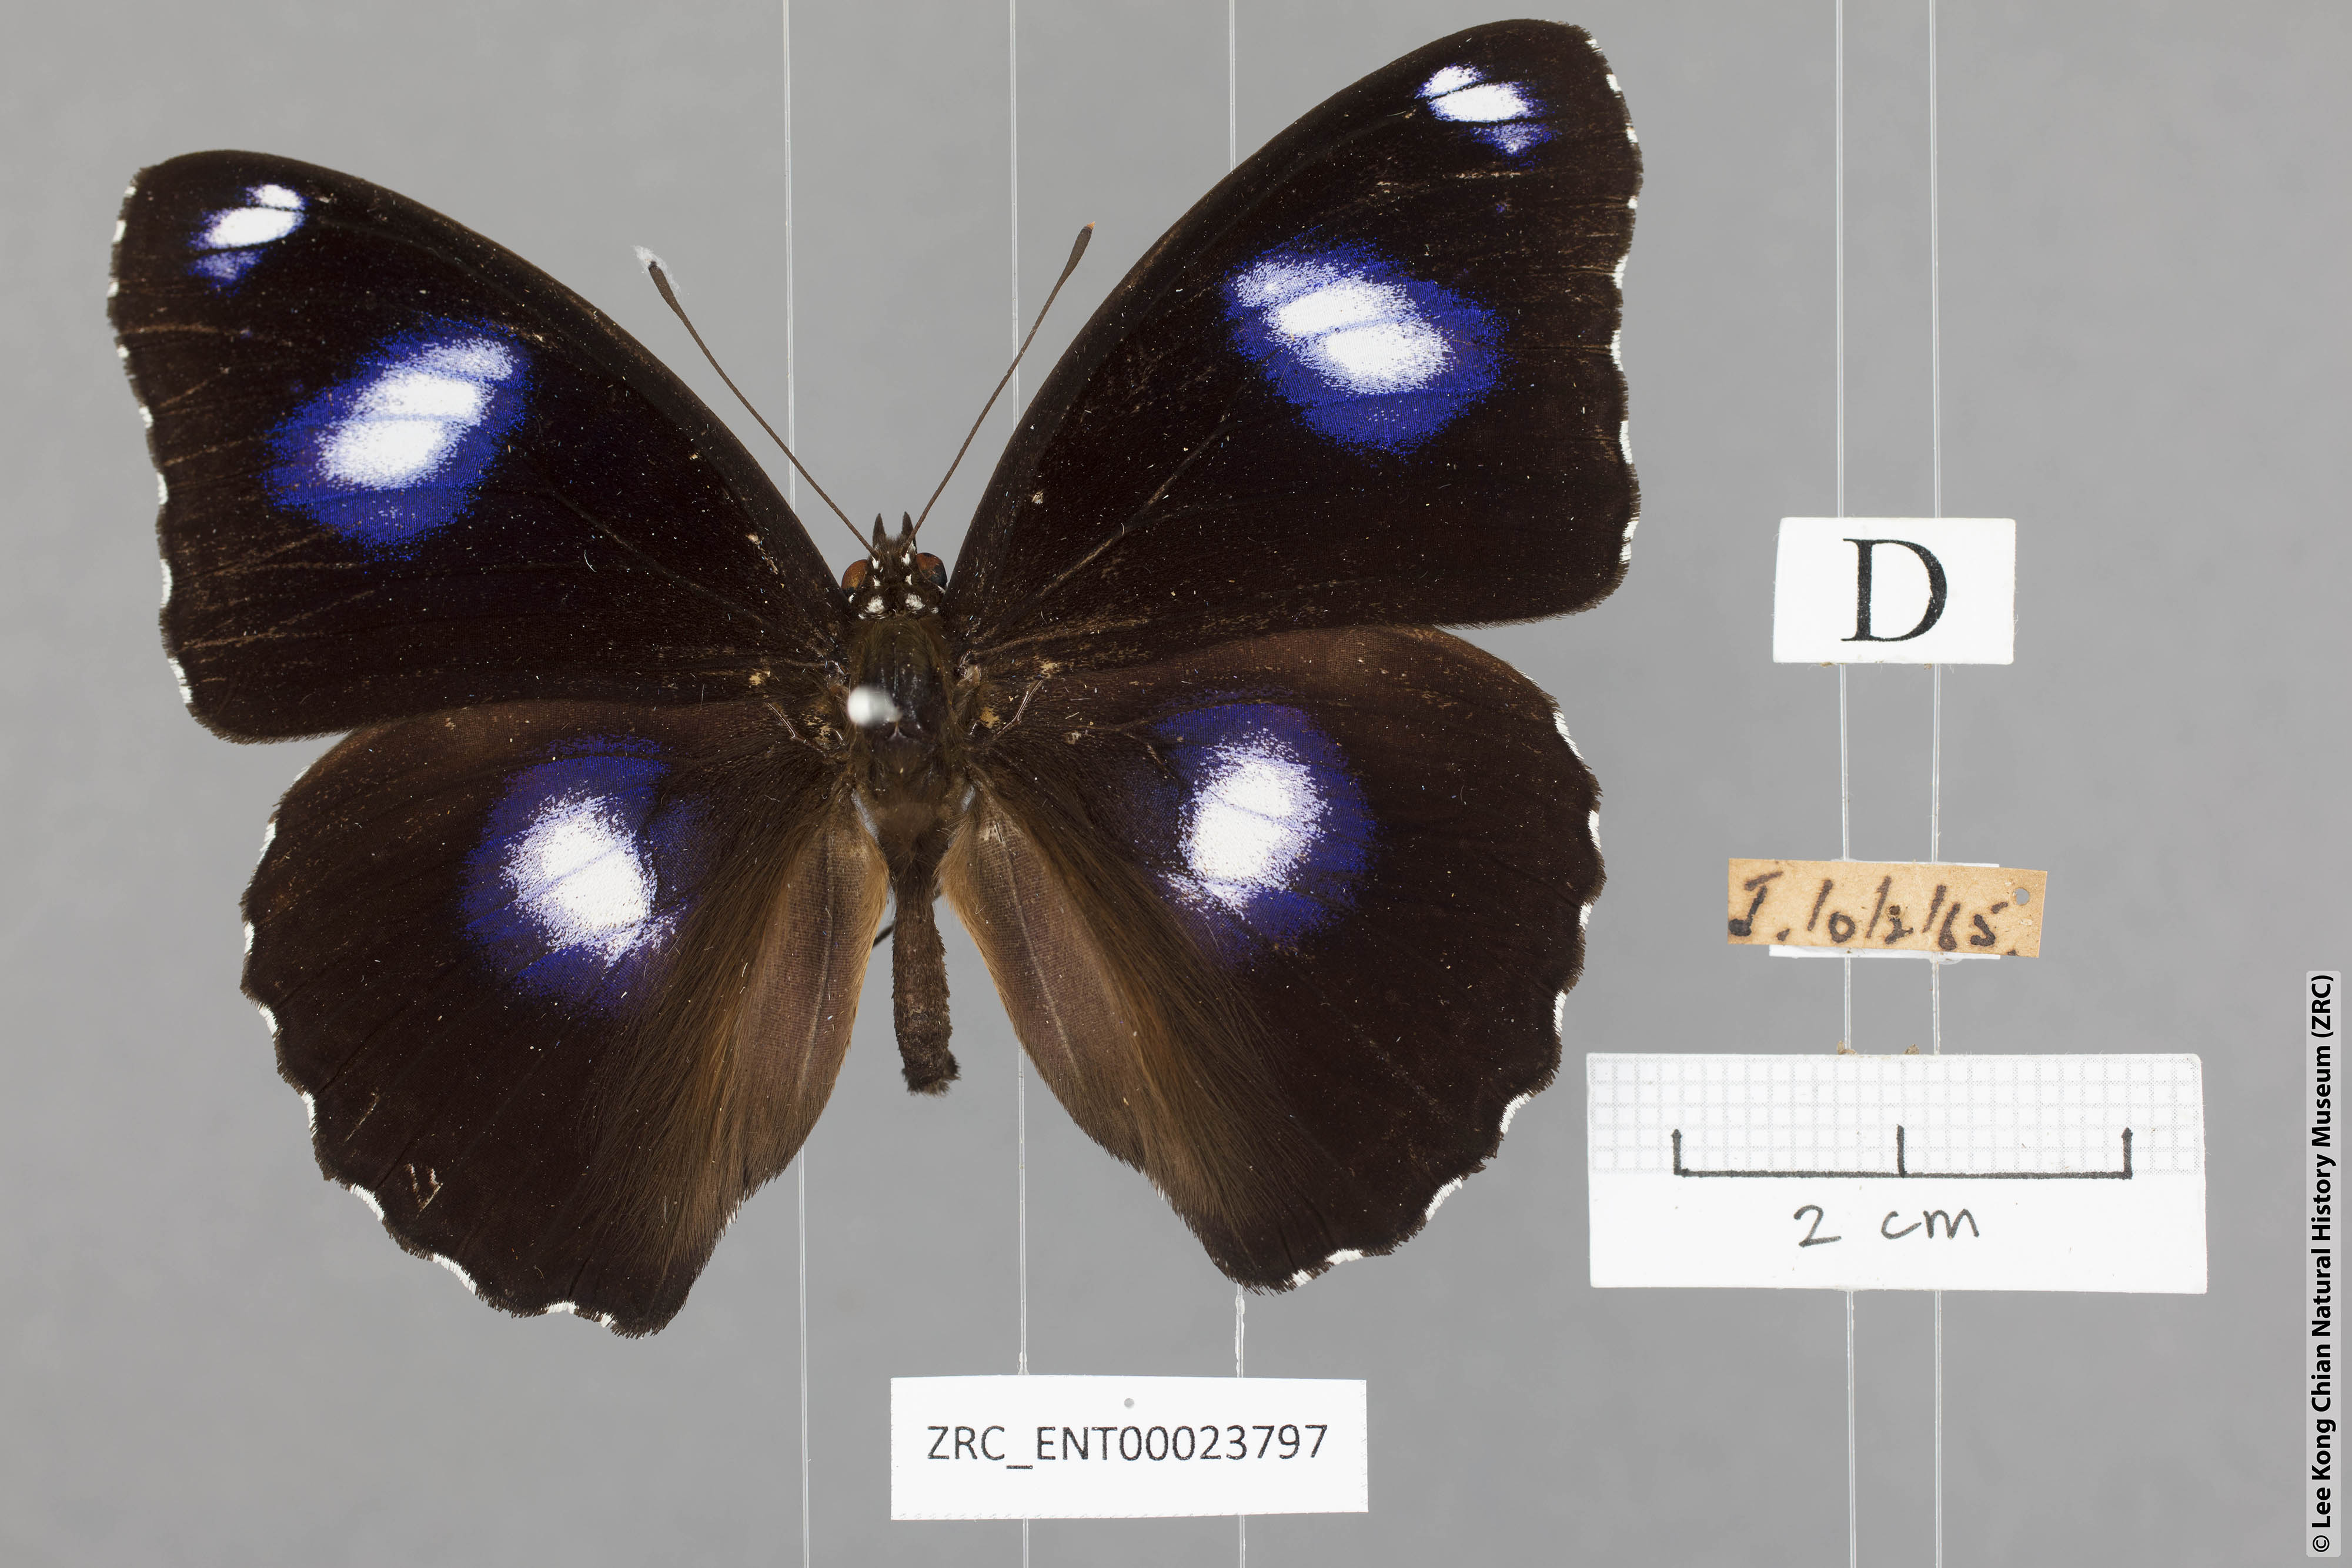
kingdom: Animalia
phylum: Arthropoda
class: Insecta
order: Lepidoptera
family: Nymphalidae
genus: Hypolimnas
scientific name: Hypolimnas bolina
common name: Great eggfly
